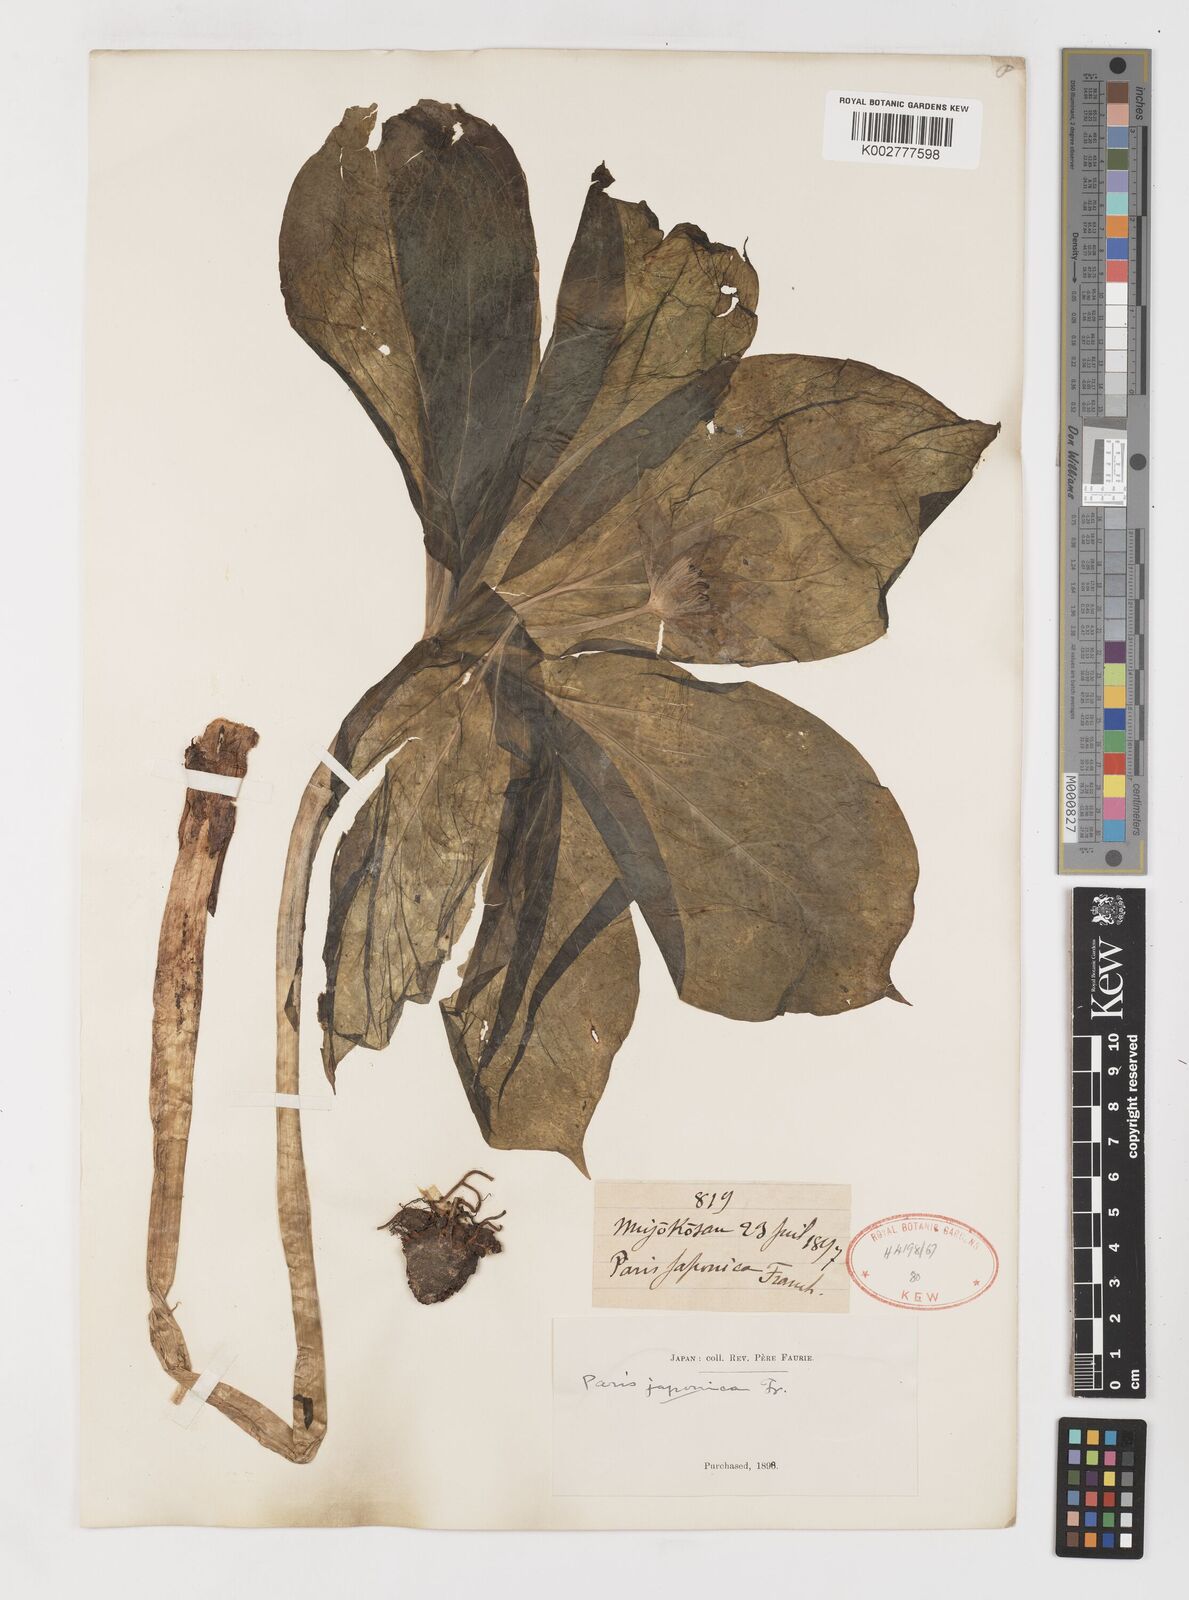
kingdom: Plantae
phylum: Tracheophyta
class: Liliopsida
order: Liliales
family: Melanthiaceae
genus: Paris
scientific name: Paris japonica
